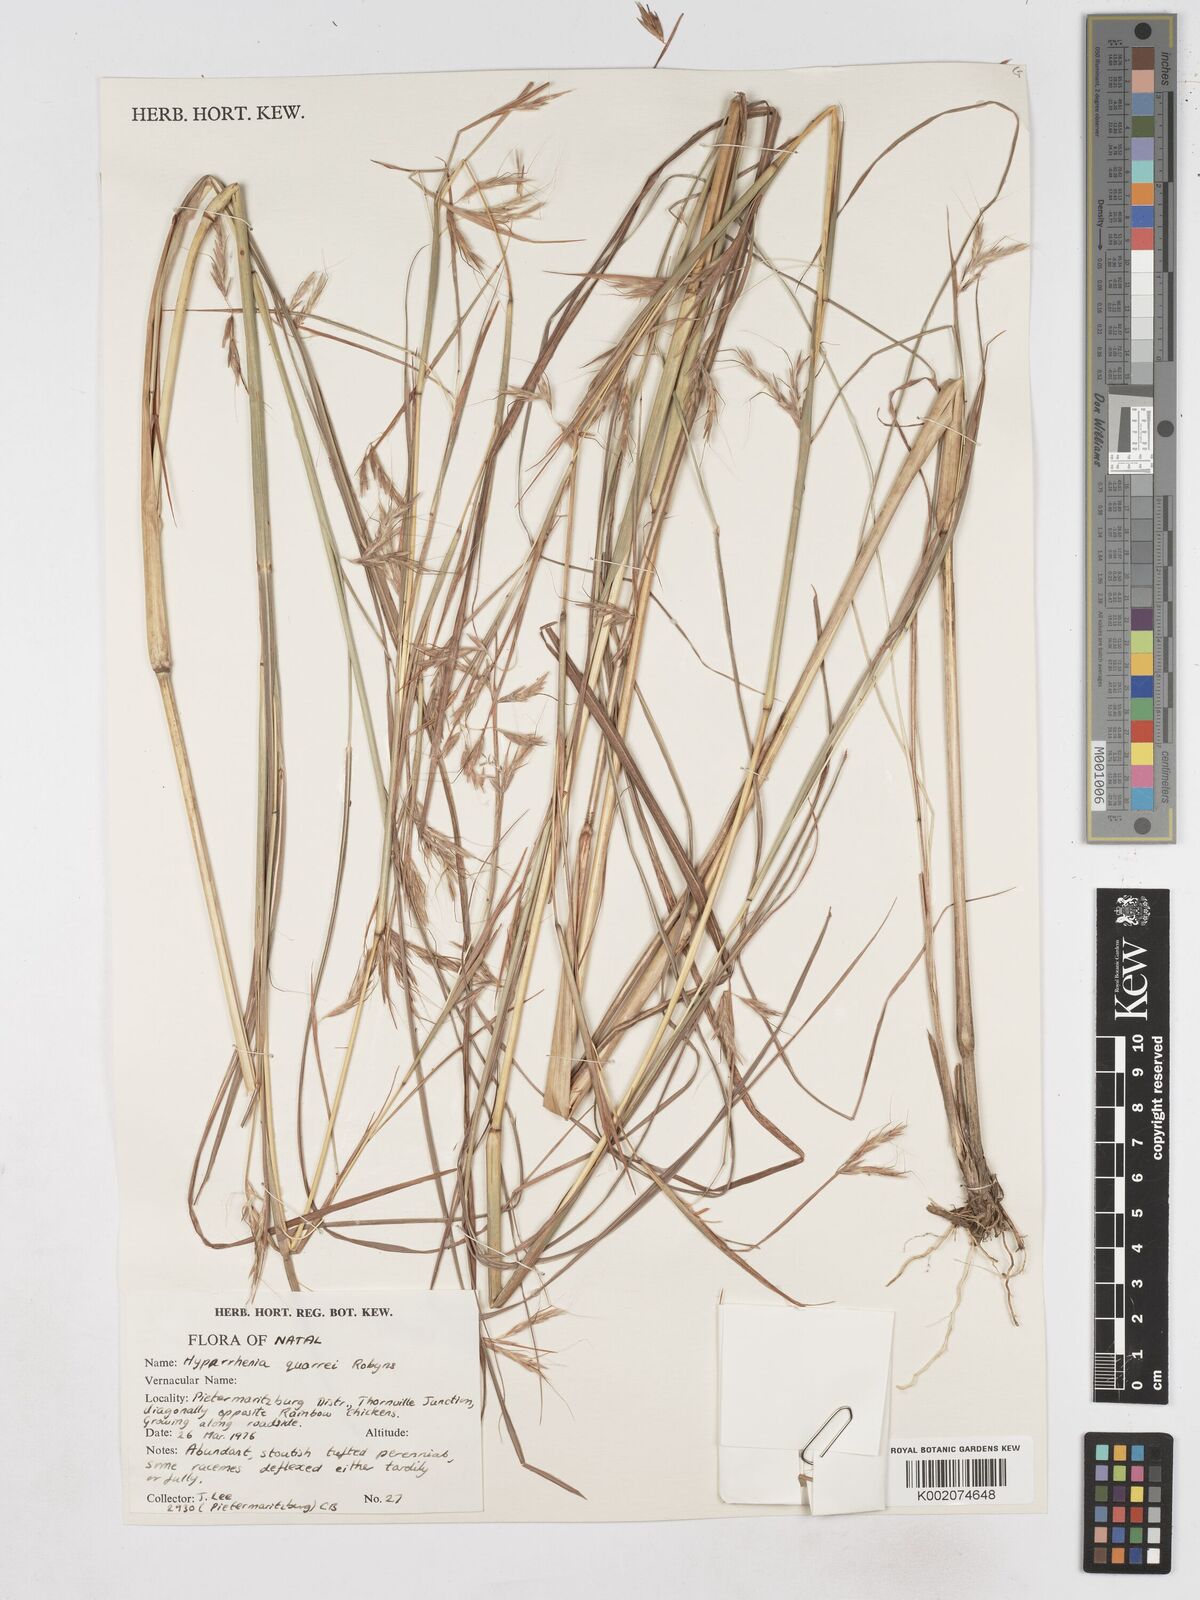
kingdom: Plantae
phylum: Tracheophyta
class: Liliopsida
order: Poales
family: Poaceae
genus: Hyparrhenia
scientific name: Hyparrhenia quarrei
